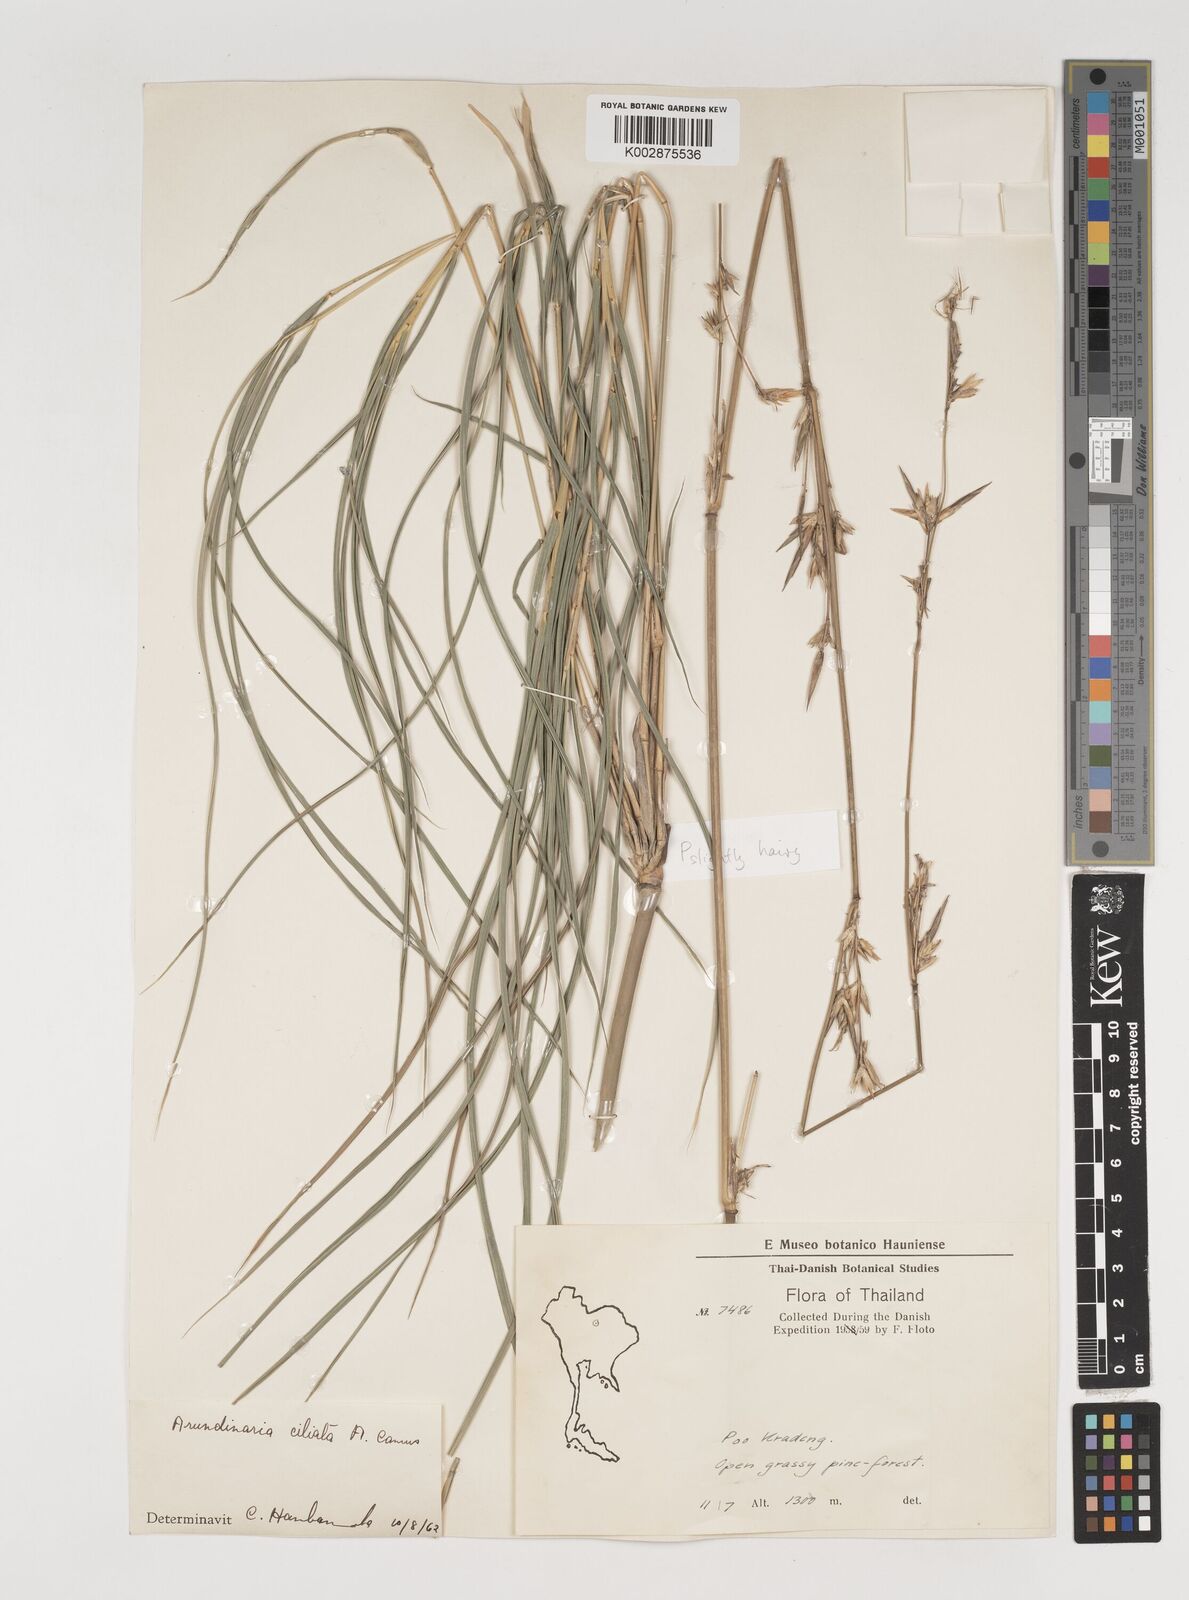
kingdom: Plantae
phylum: Tracheophyta
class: Liliopsida
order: Poales
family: Poaceae
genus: Vietnamosasa
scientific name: Vietnamosasa
